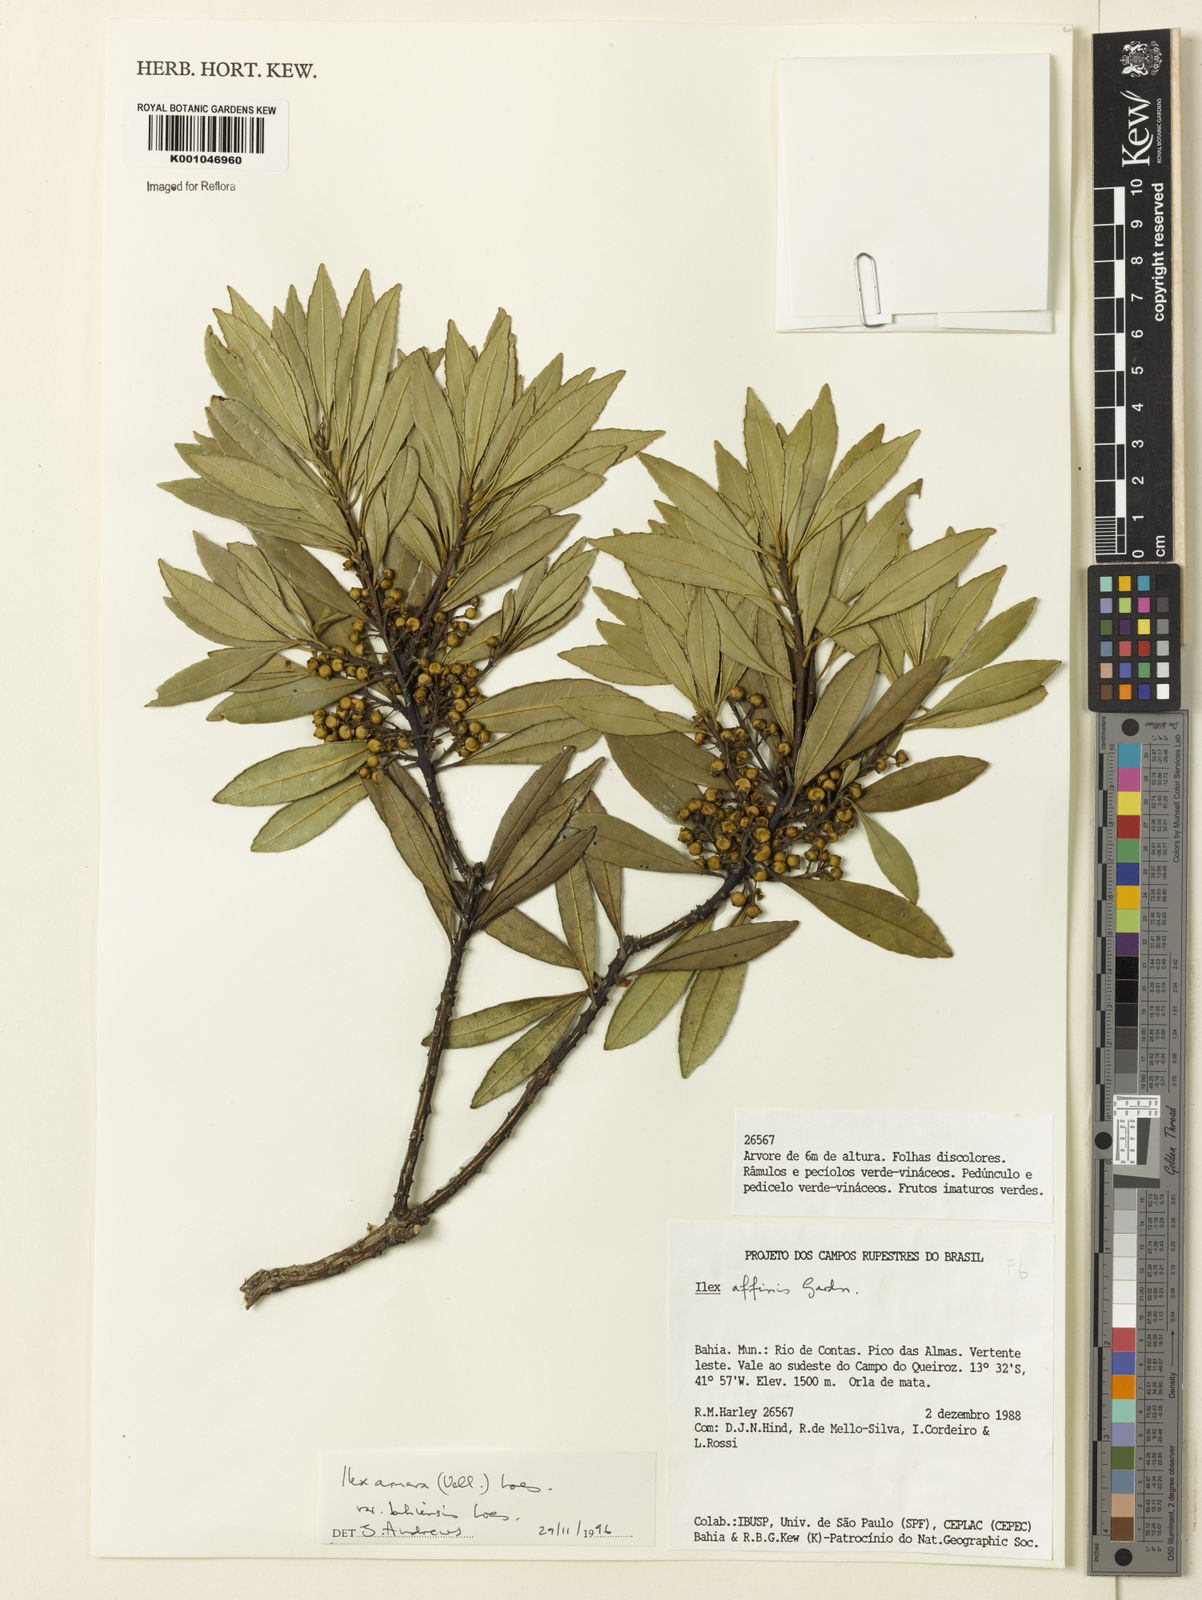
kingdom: Plantae
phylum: Tracheophyta
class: Magnoliopsida
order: Aquifoliales
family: Aquifoliaceae
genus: Ilex
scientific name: Ilex dumosa
